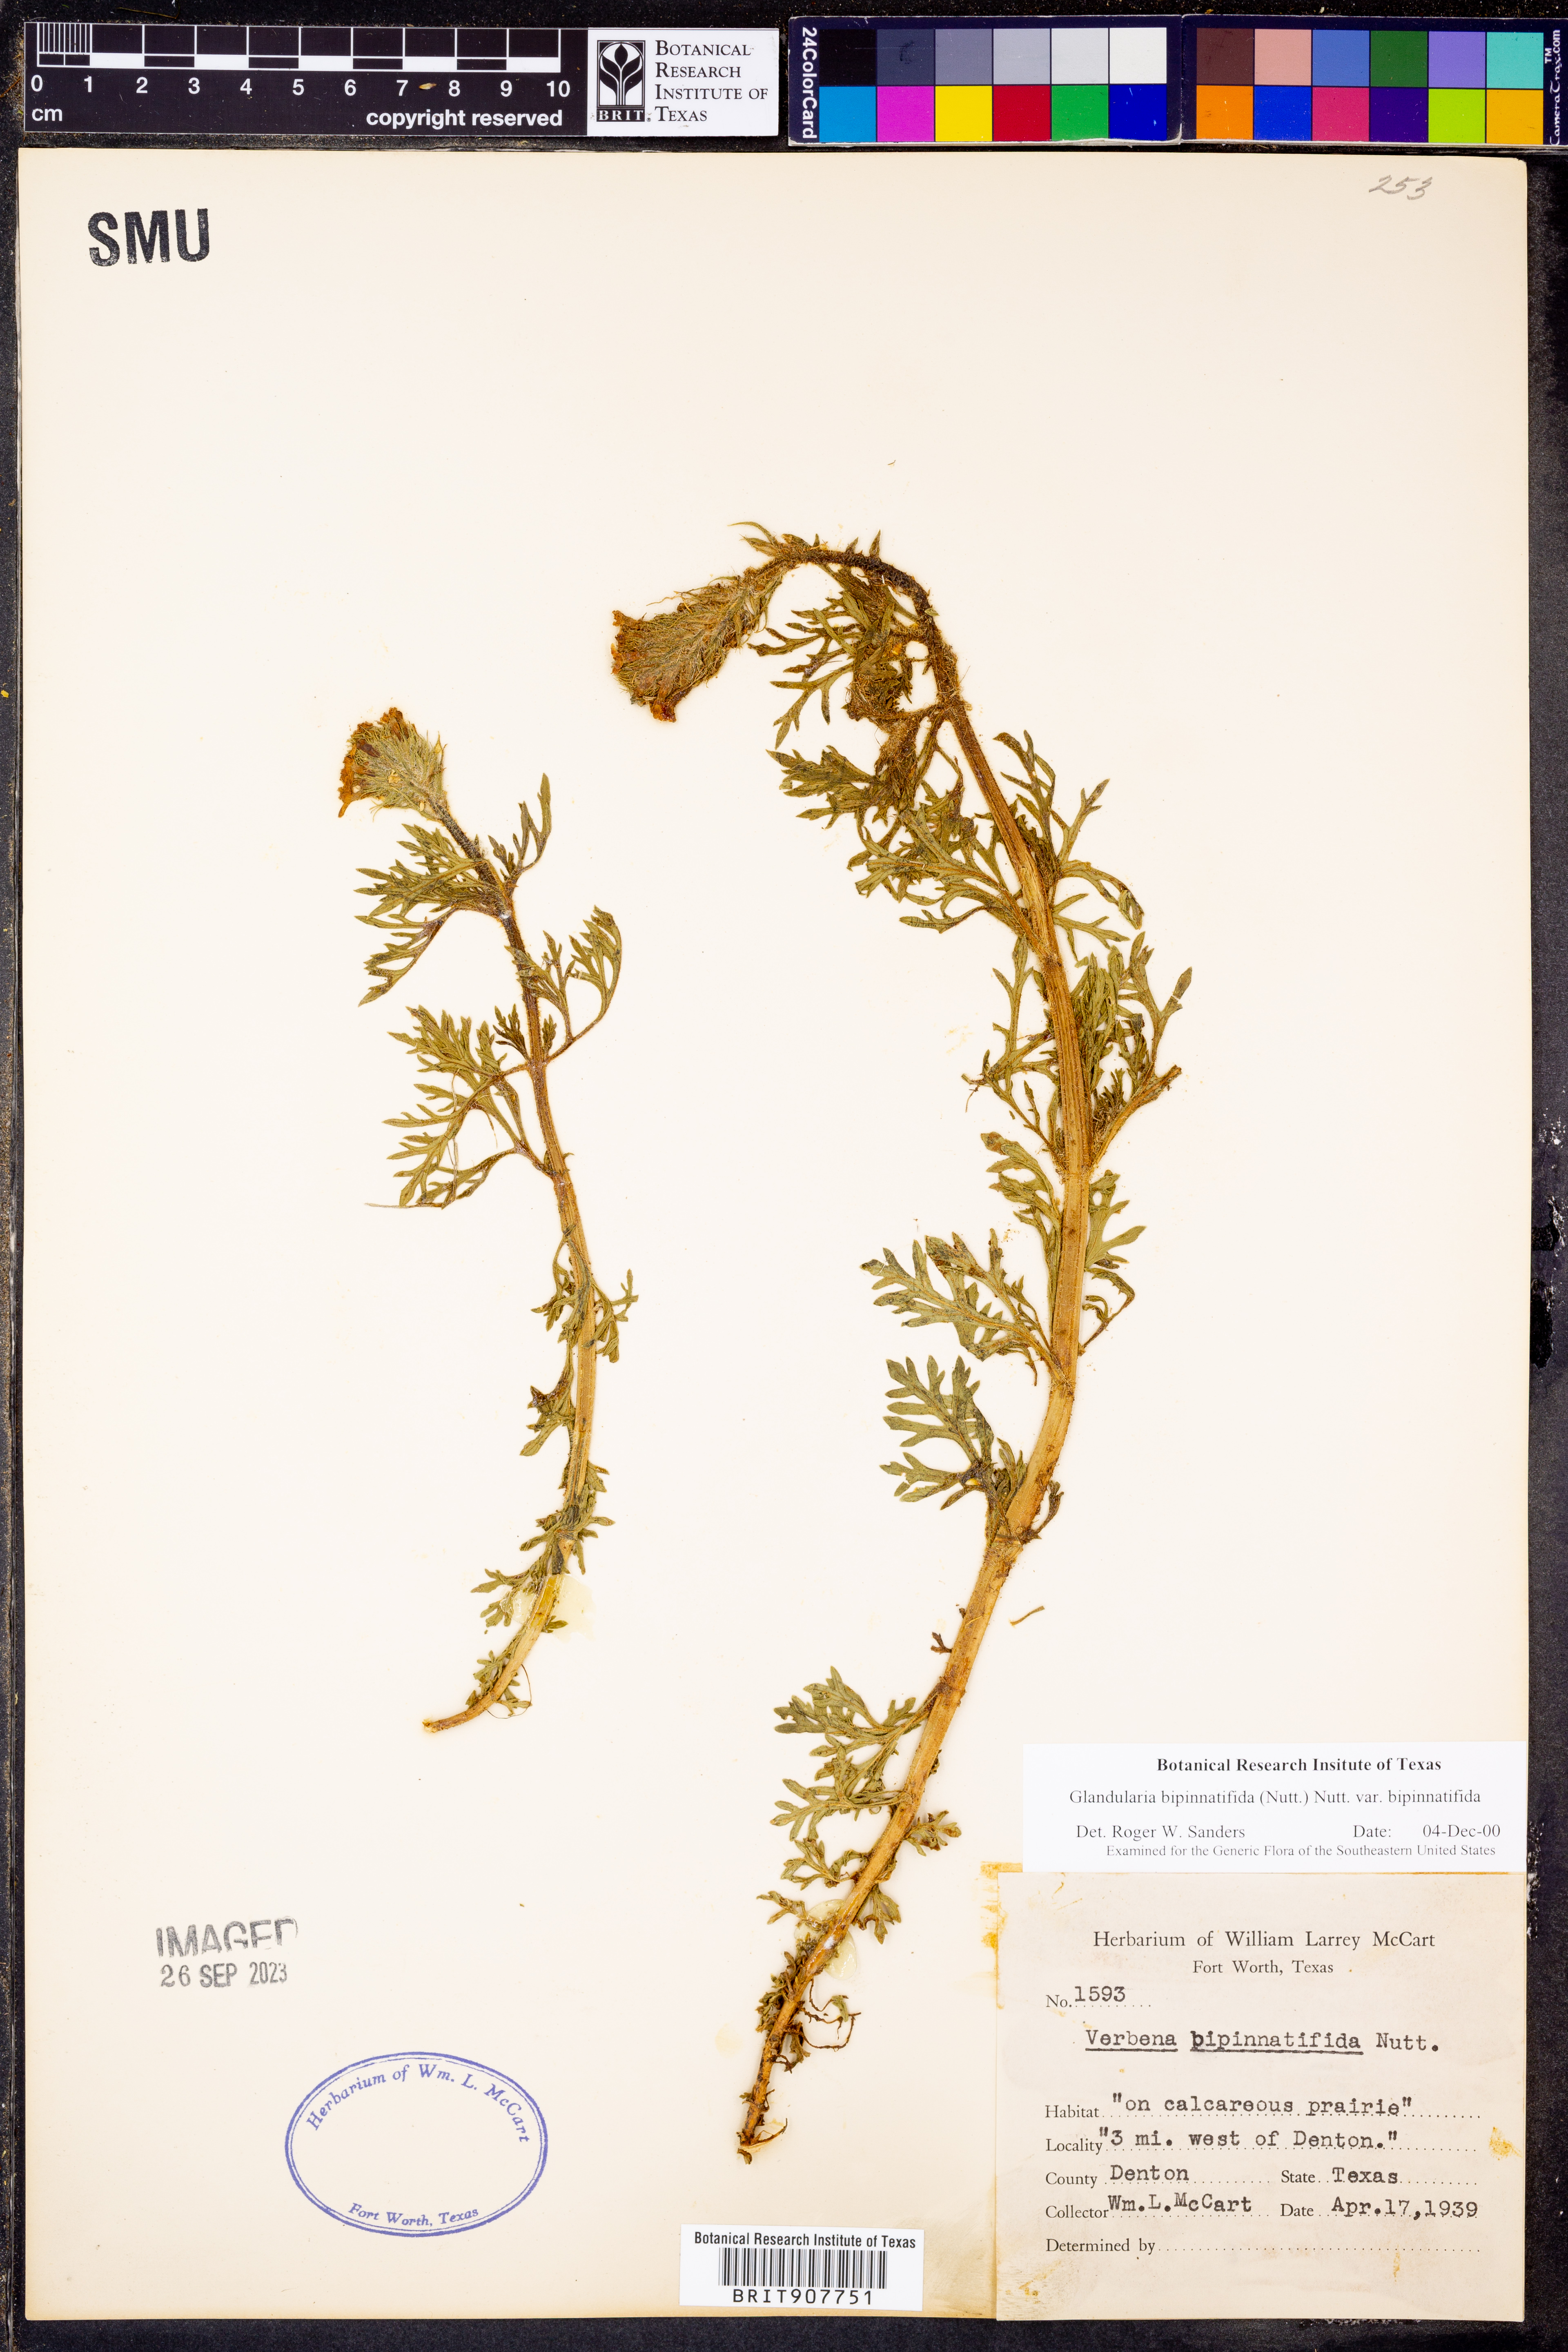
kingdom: Plantae
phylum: Tracheophyta
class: Magnoliopsida
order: Lamiales
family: Verbenaceae
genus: Verbena
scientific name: Verbena bipinnatifida
